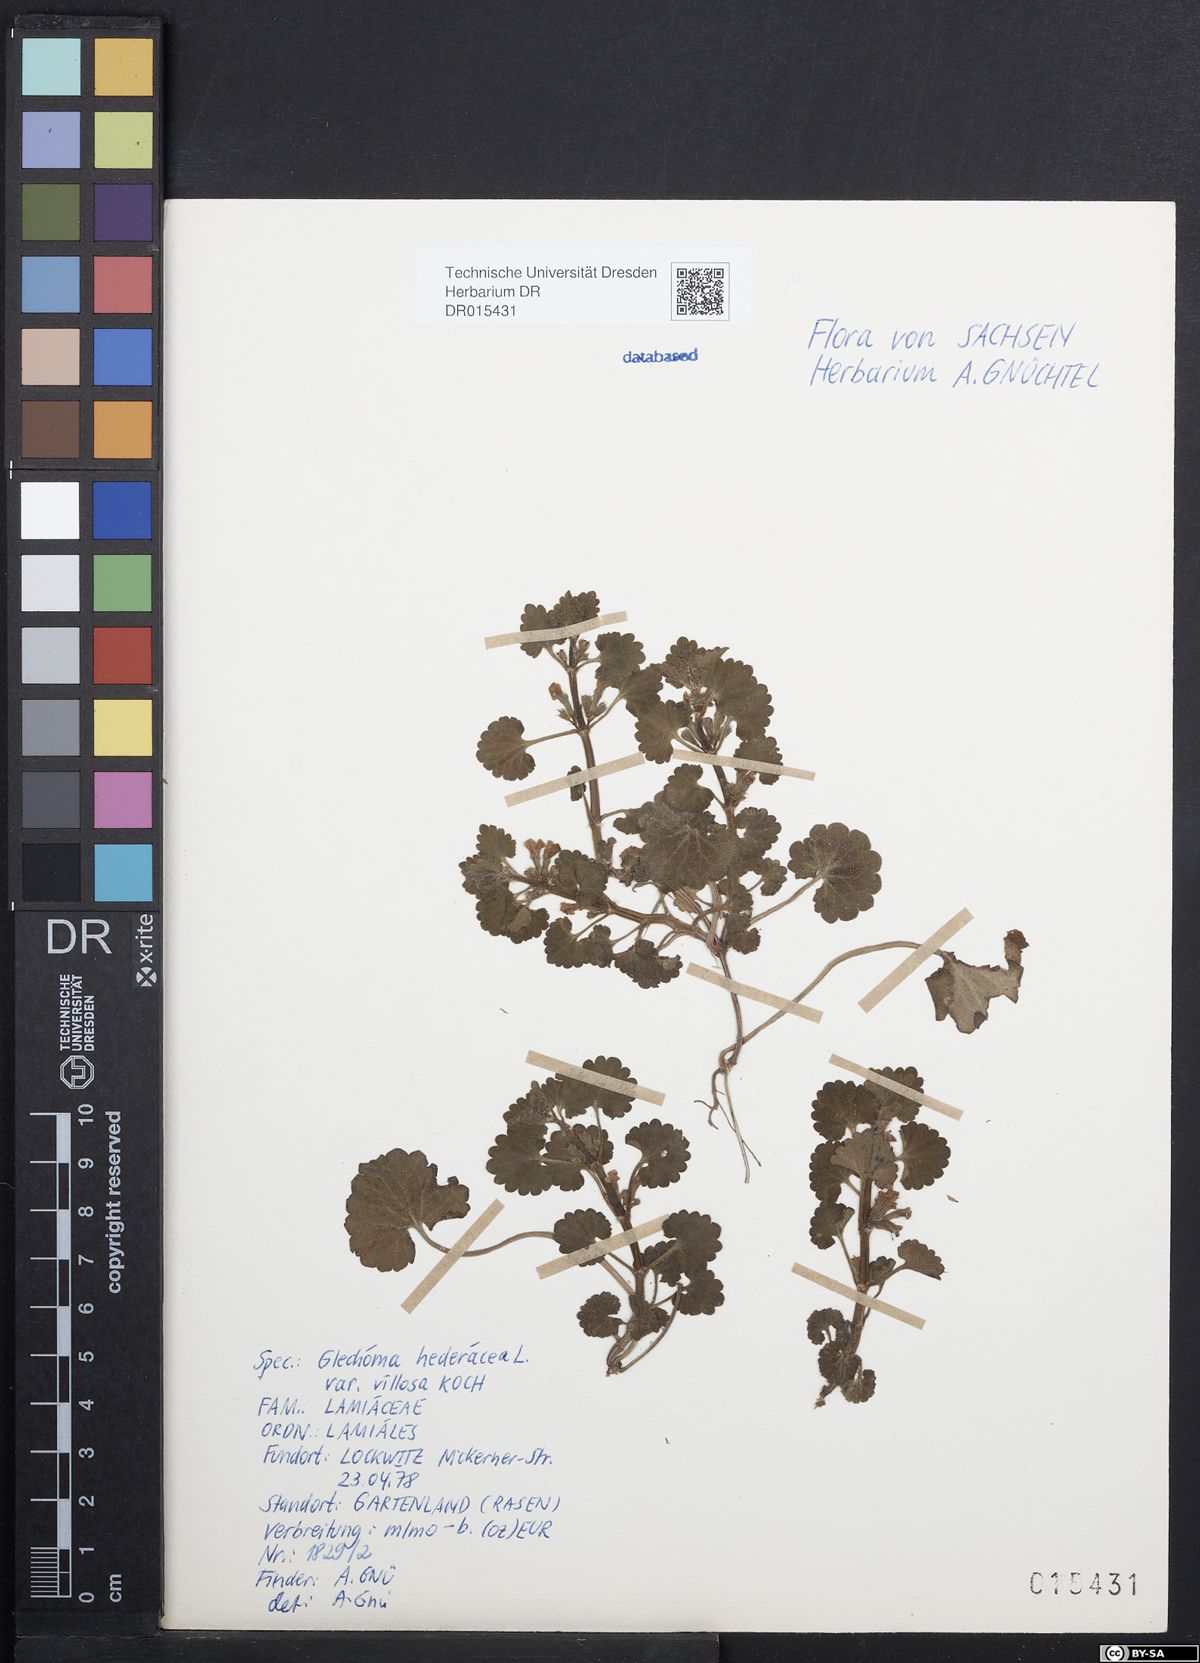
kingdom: Plantae
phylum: Tracheophyta
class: Magnoliopsida
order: Lamiales
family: Lamiaceae
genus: Glechoma
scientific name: Glechoma hederacea
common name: Ground ivy
